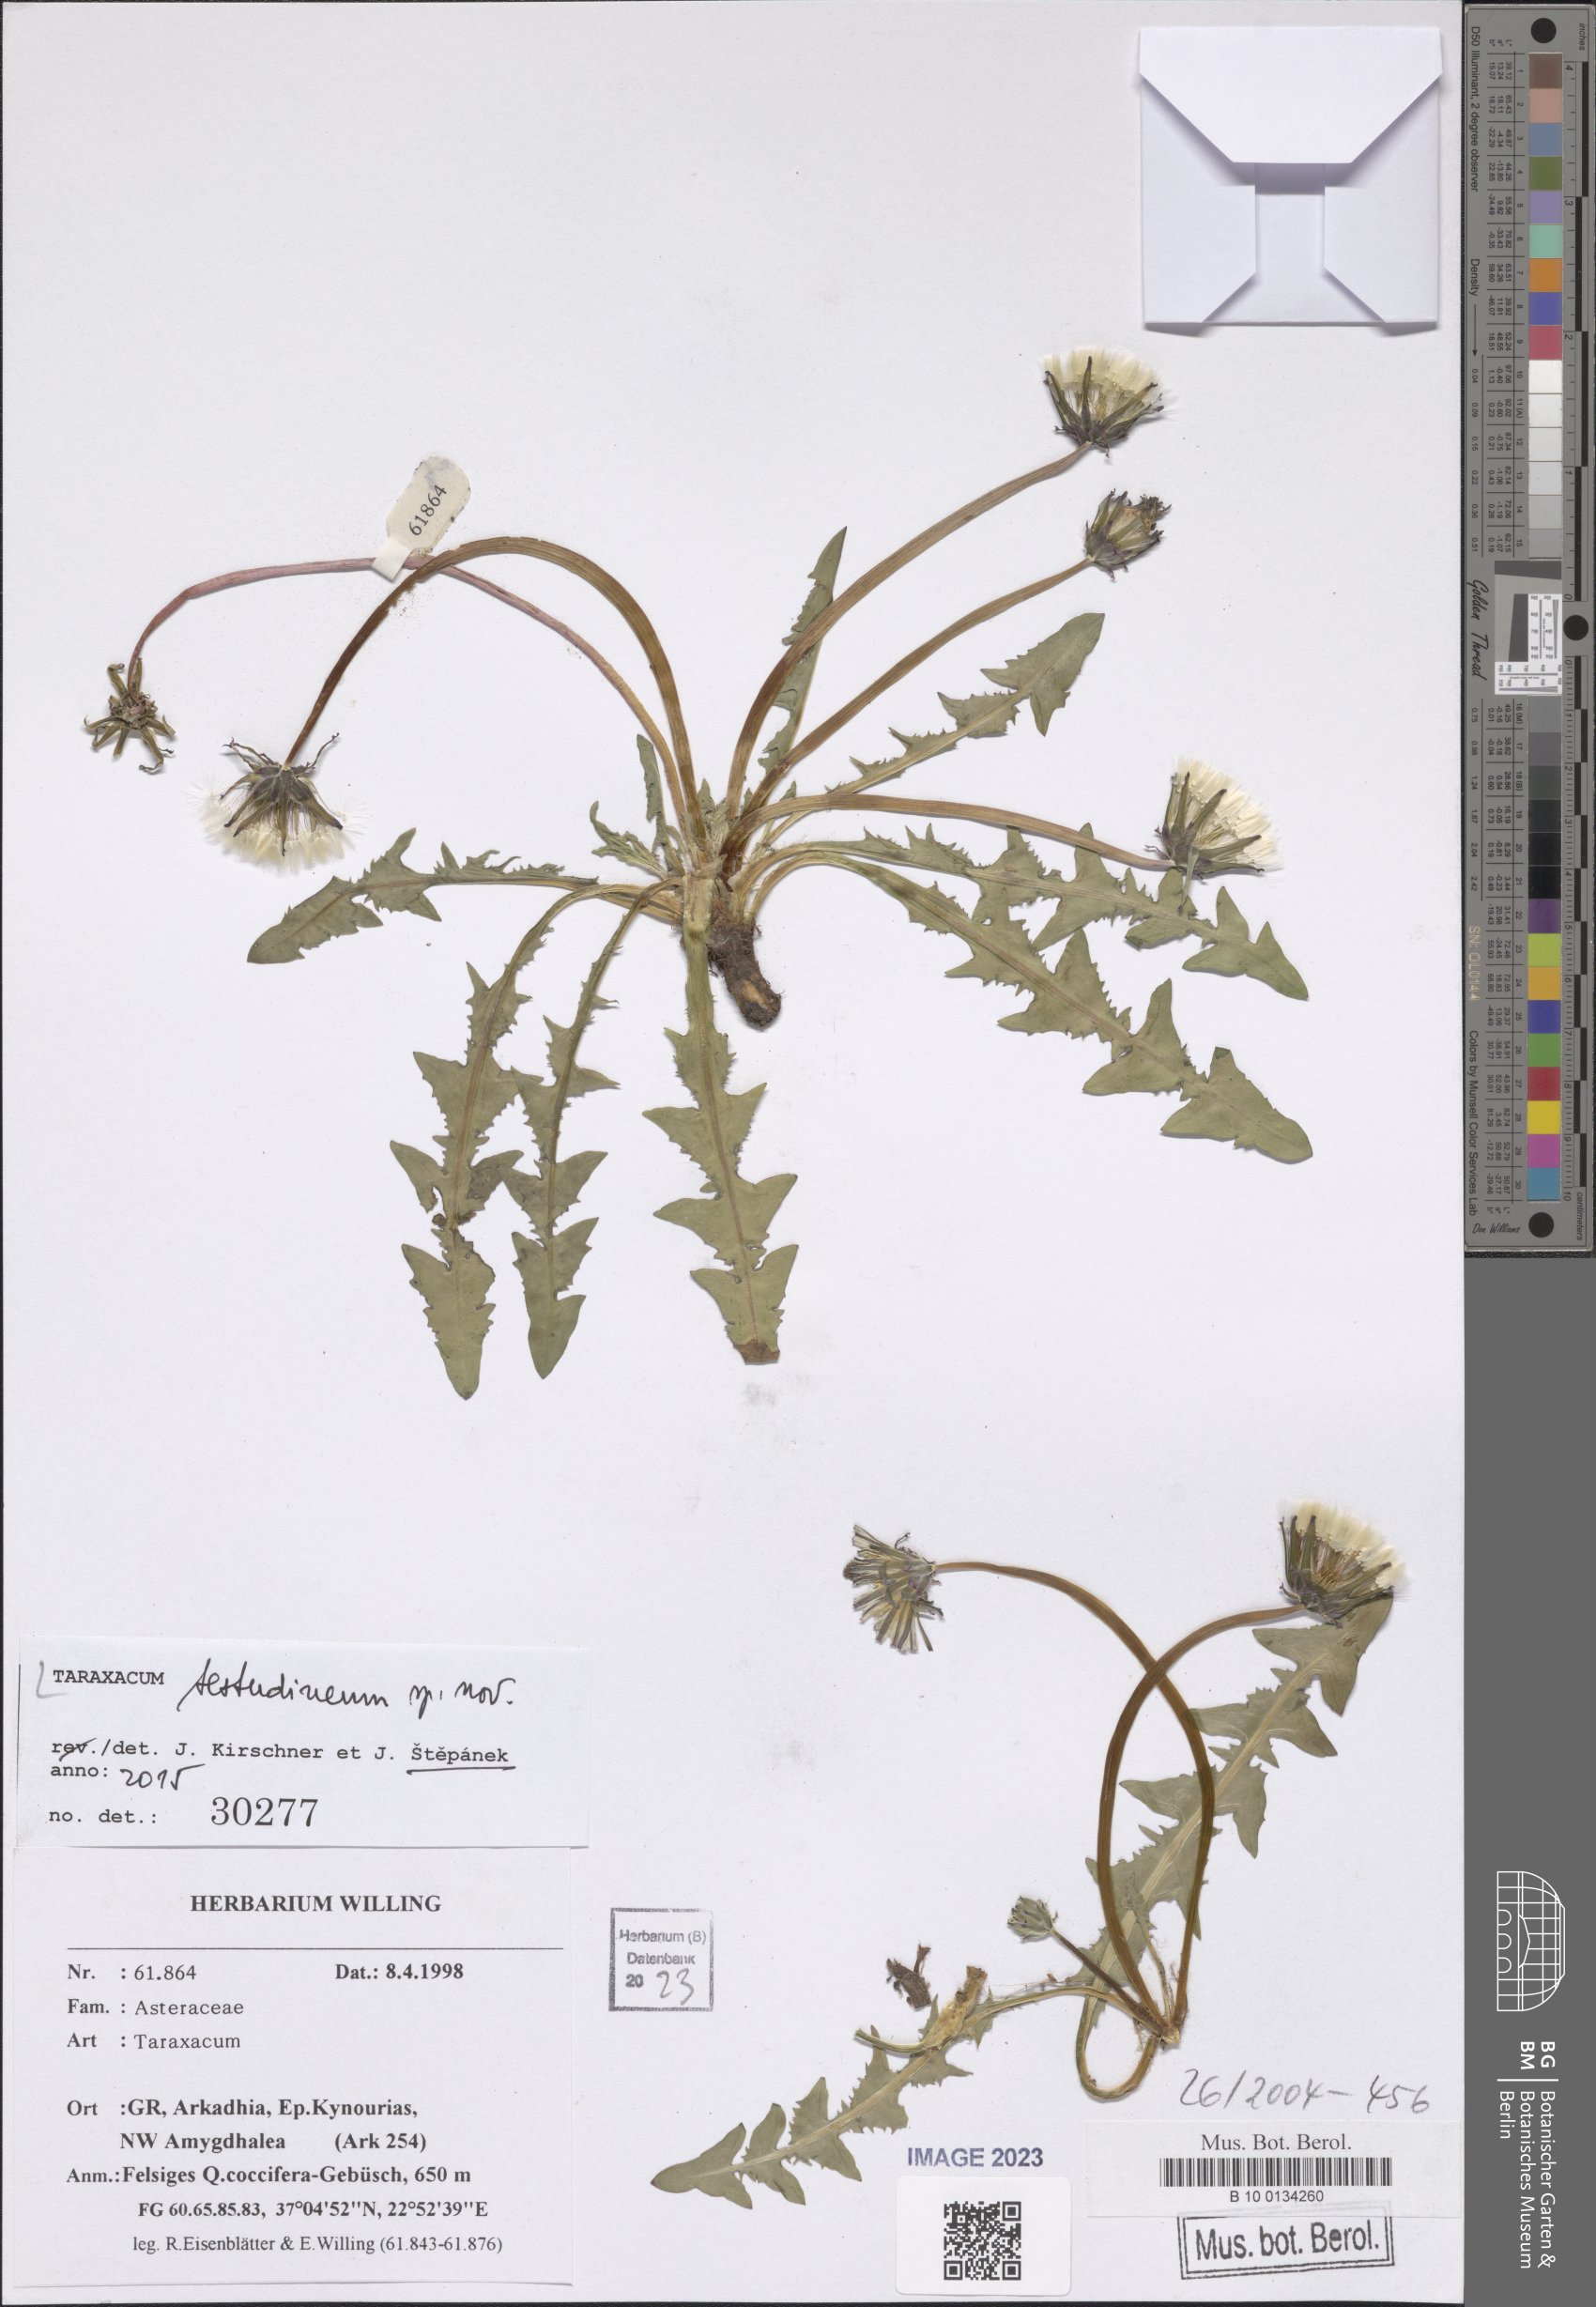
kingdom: Plantae
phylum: Tracheophyta
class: Magnoliopsida
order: Asterales
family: Asteraceae
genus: Taraxacum
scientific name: Taraxacum
